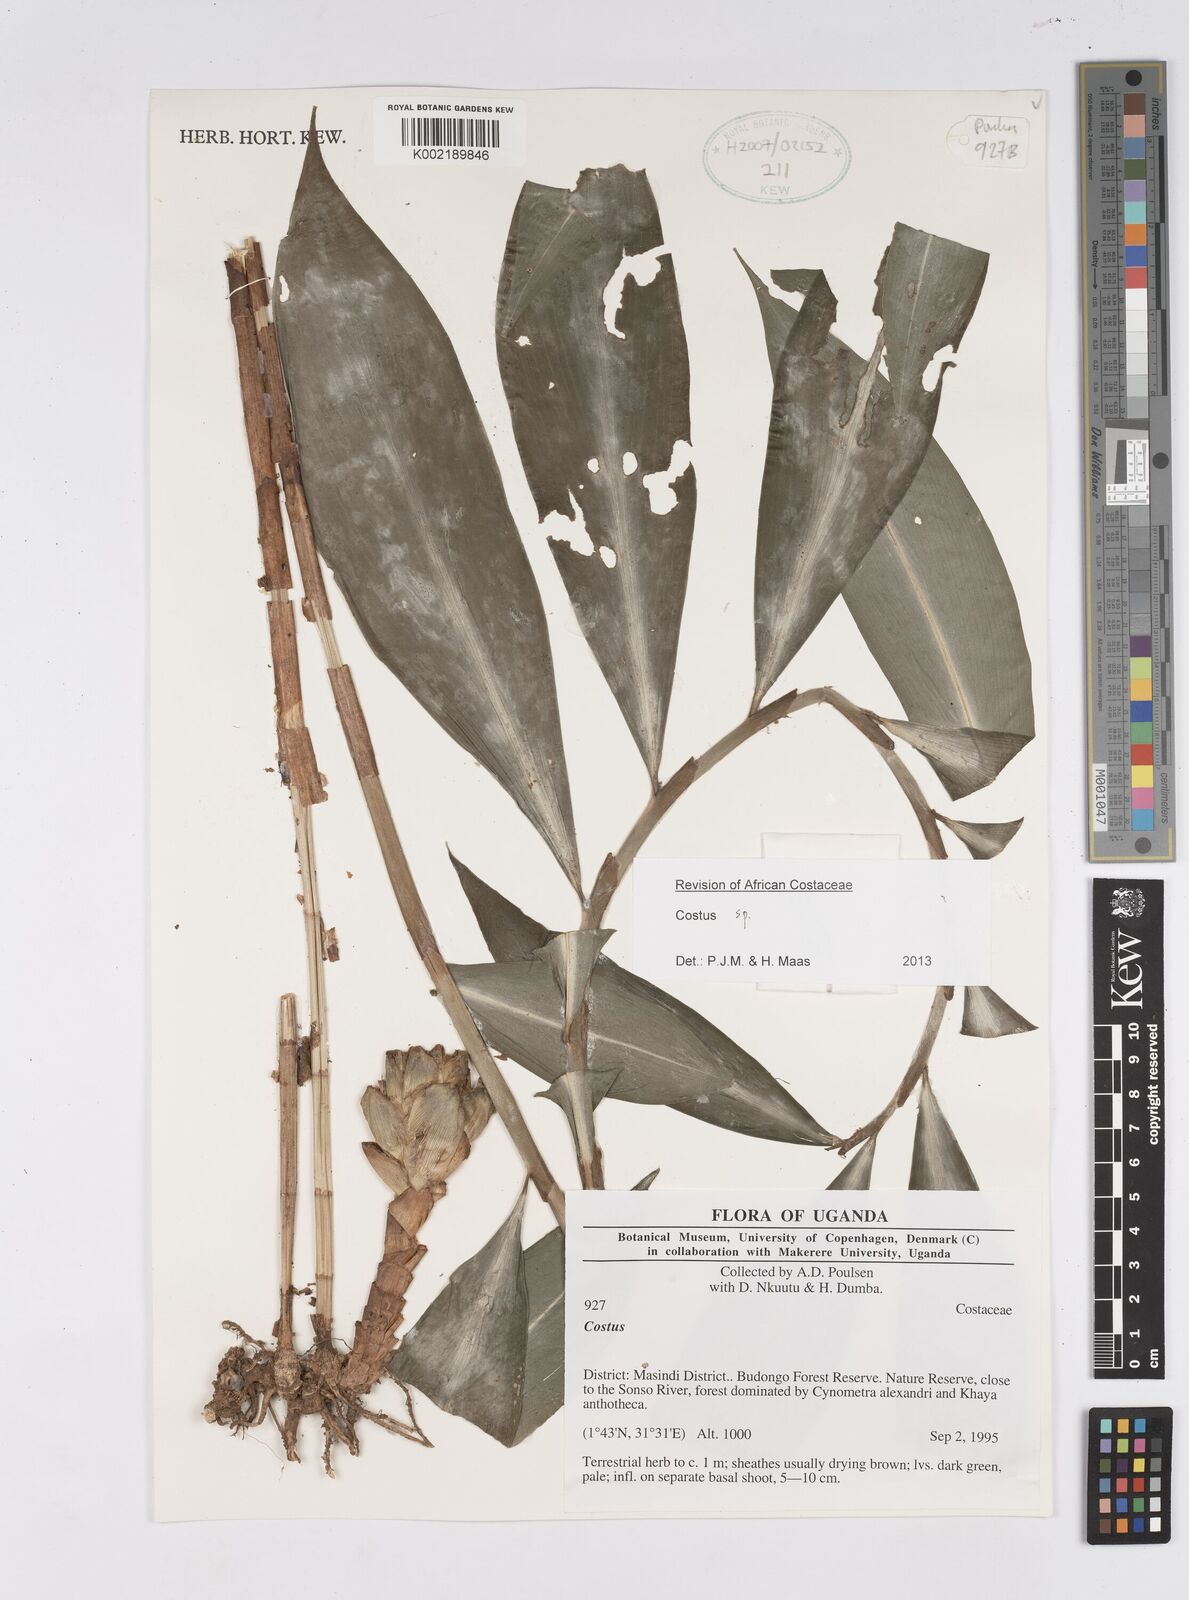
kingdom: Plantae
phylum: Tracheophyta
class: Liliopsida
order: Zingiberales
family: Costaceae
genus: Costus
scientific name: Costus
